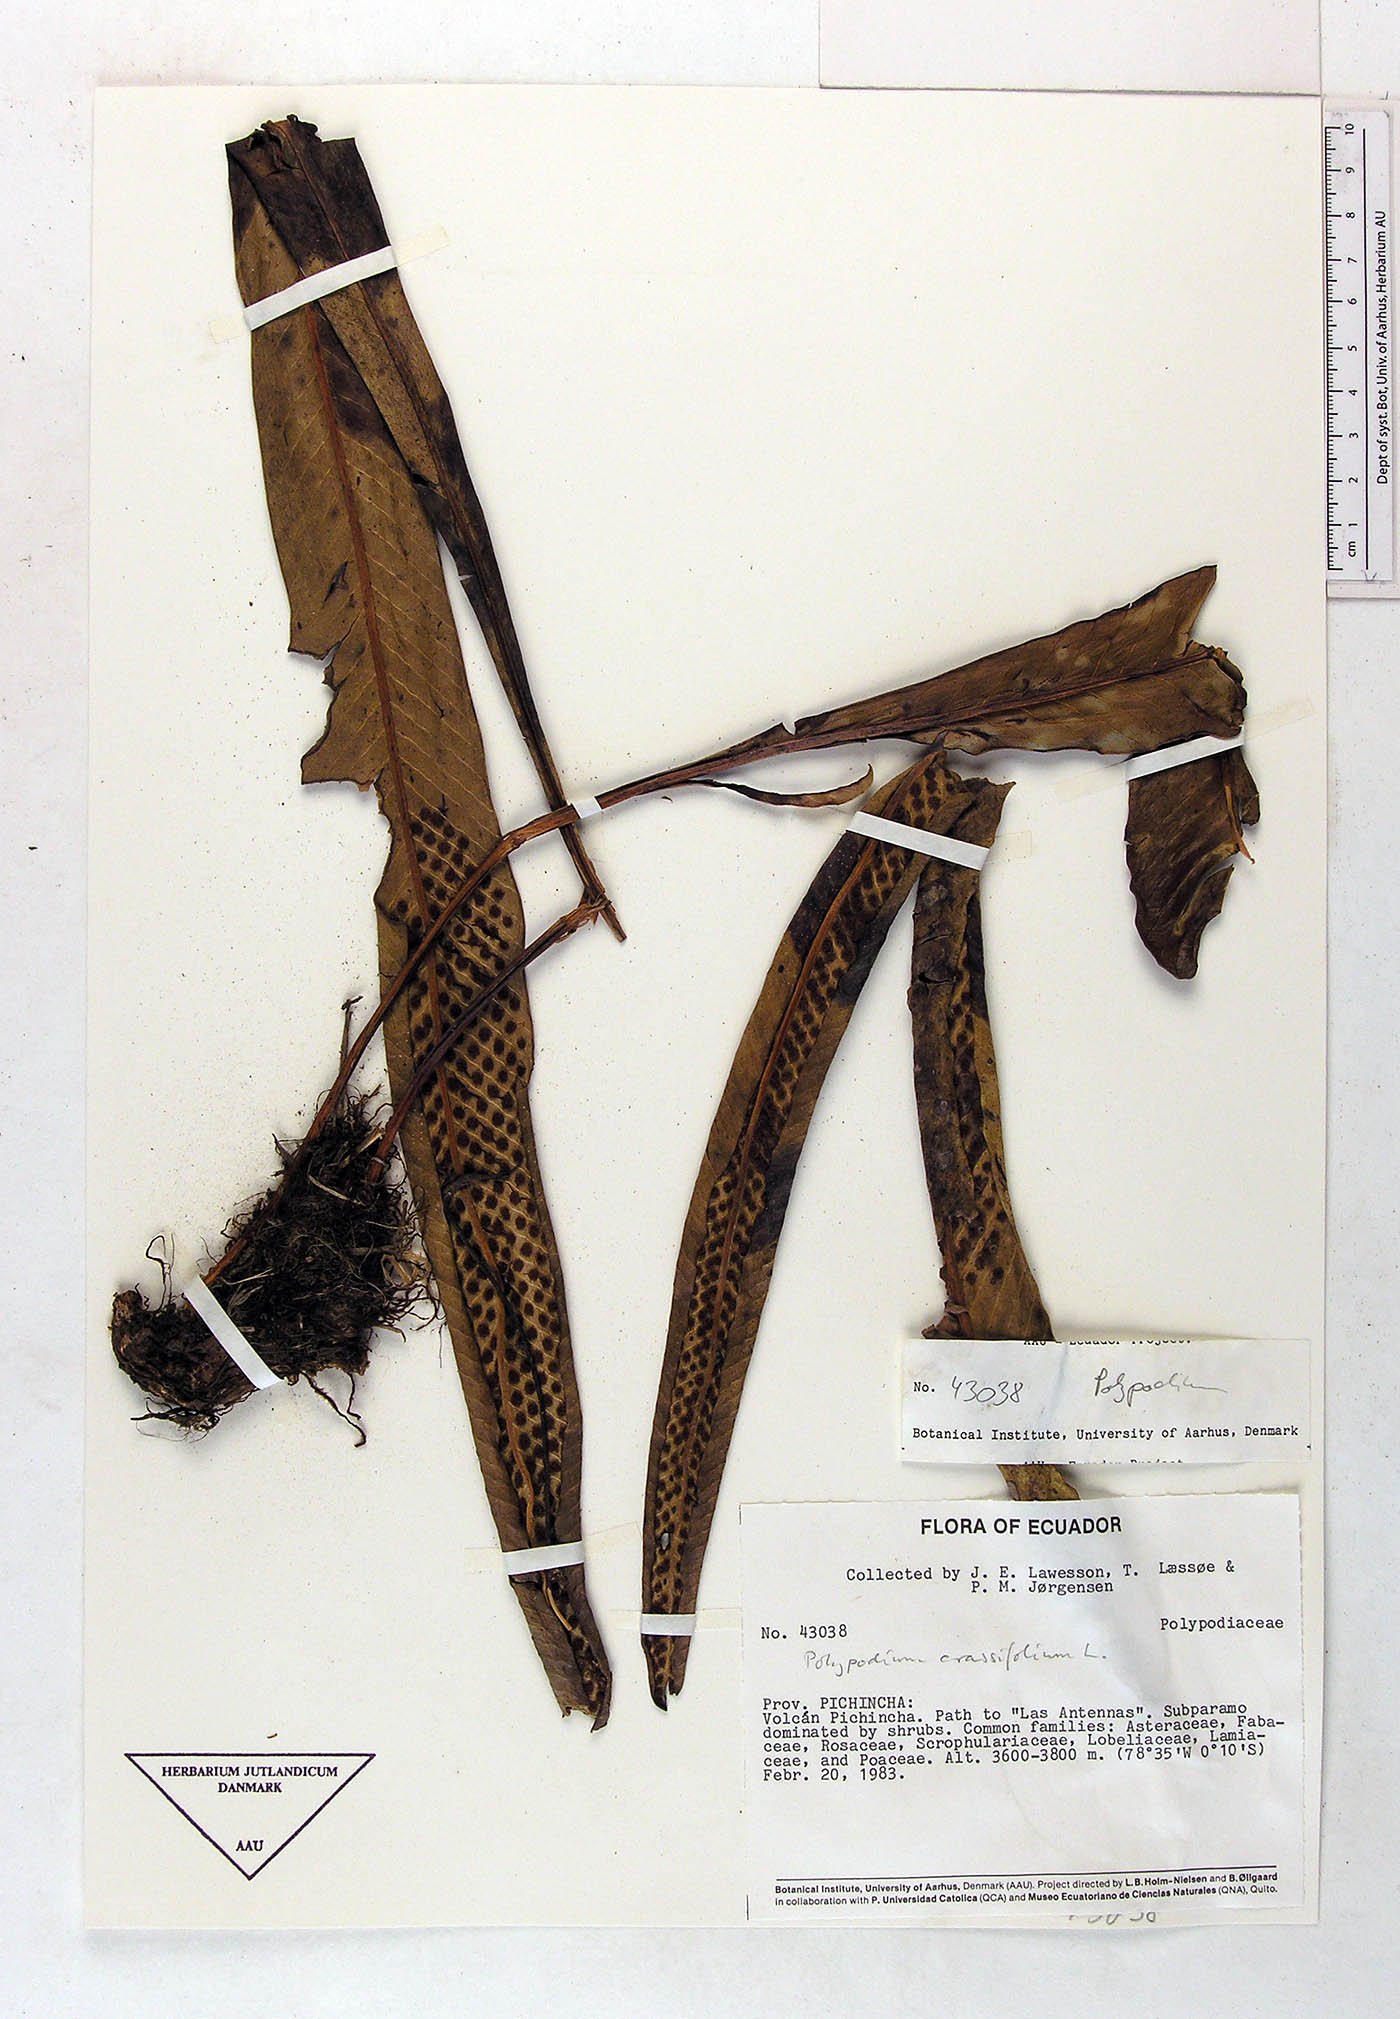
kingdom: Plantae
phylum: Tracheophyta
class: Polypodiopsida
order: Polypodiales
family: Polypodiaceae
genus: Niphidium
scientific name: Niphidium crassifolium
